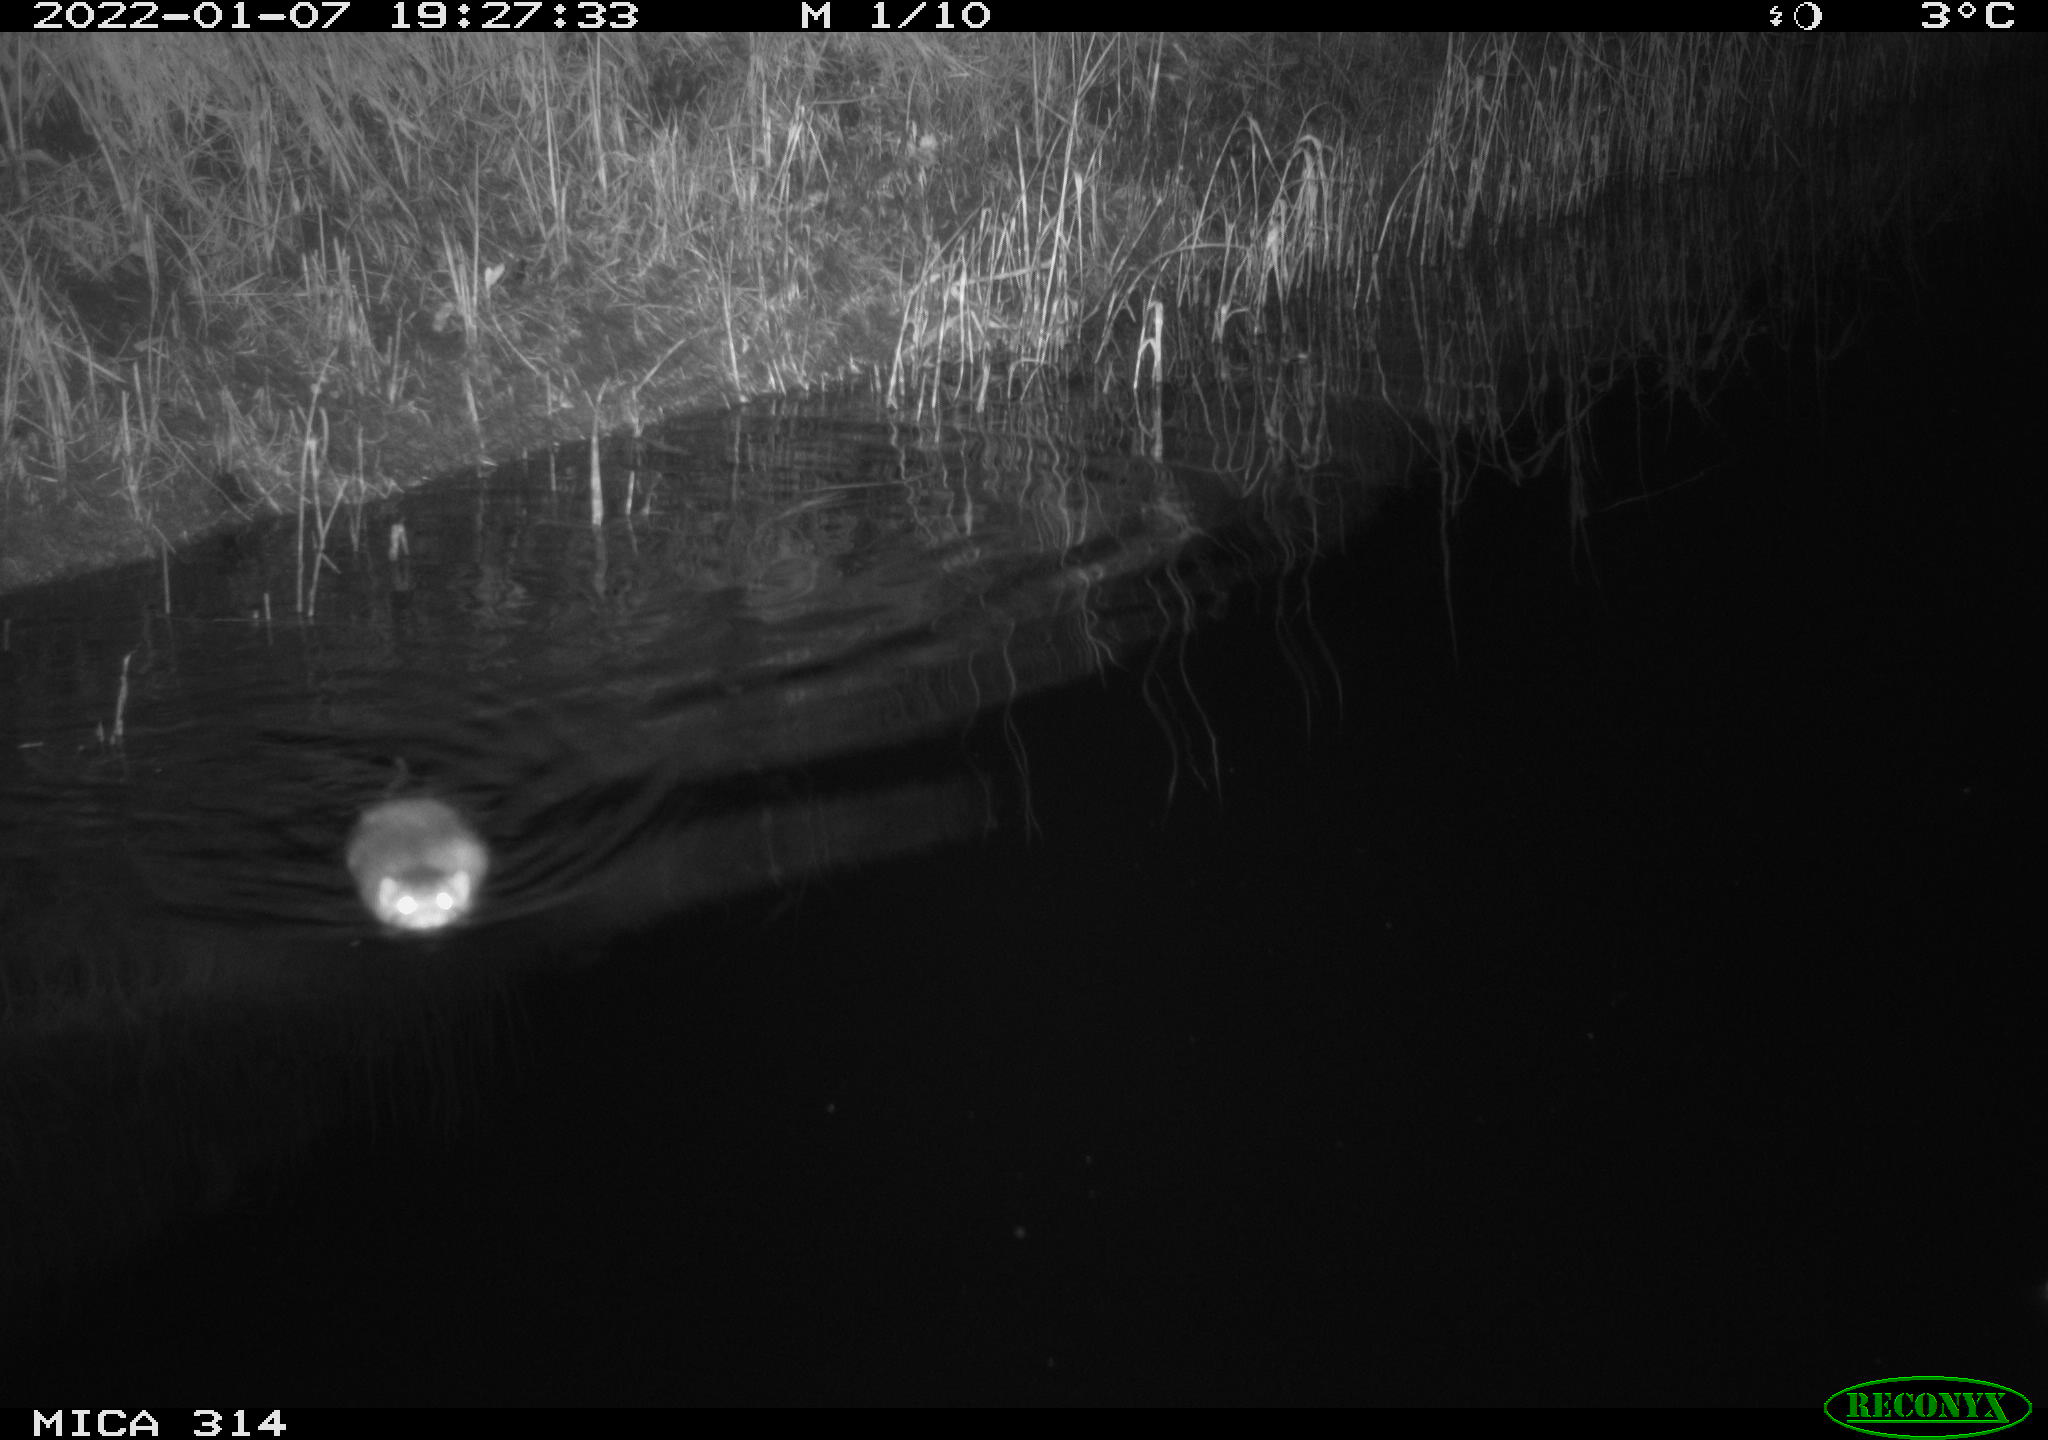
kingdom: Animalia
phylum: Chordata
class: Mammalia
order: Rodentia
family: Cricetidae
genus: Ondatra
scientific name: Ondatra zibethicus
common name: Muskrat
